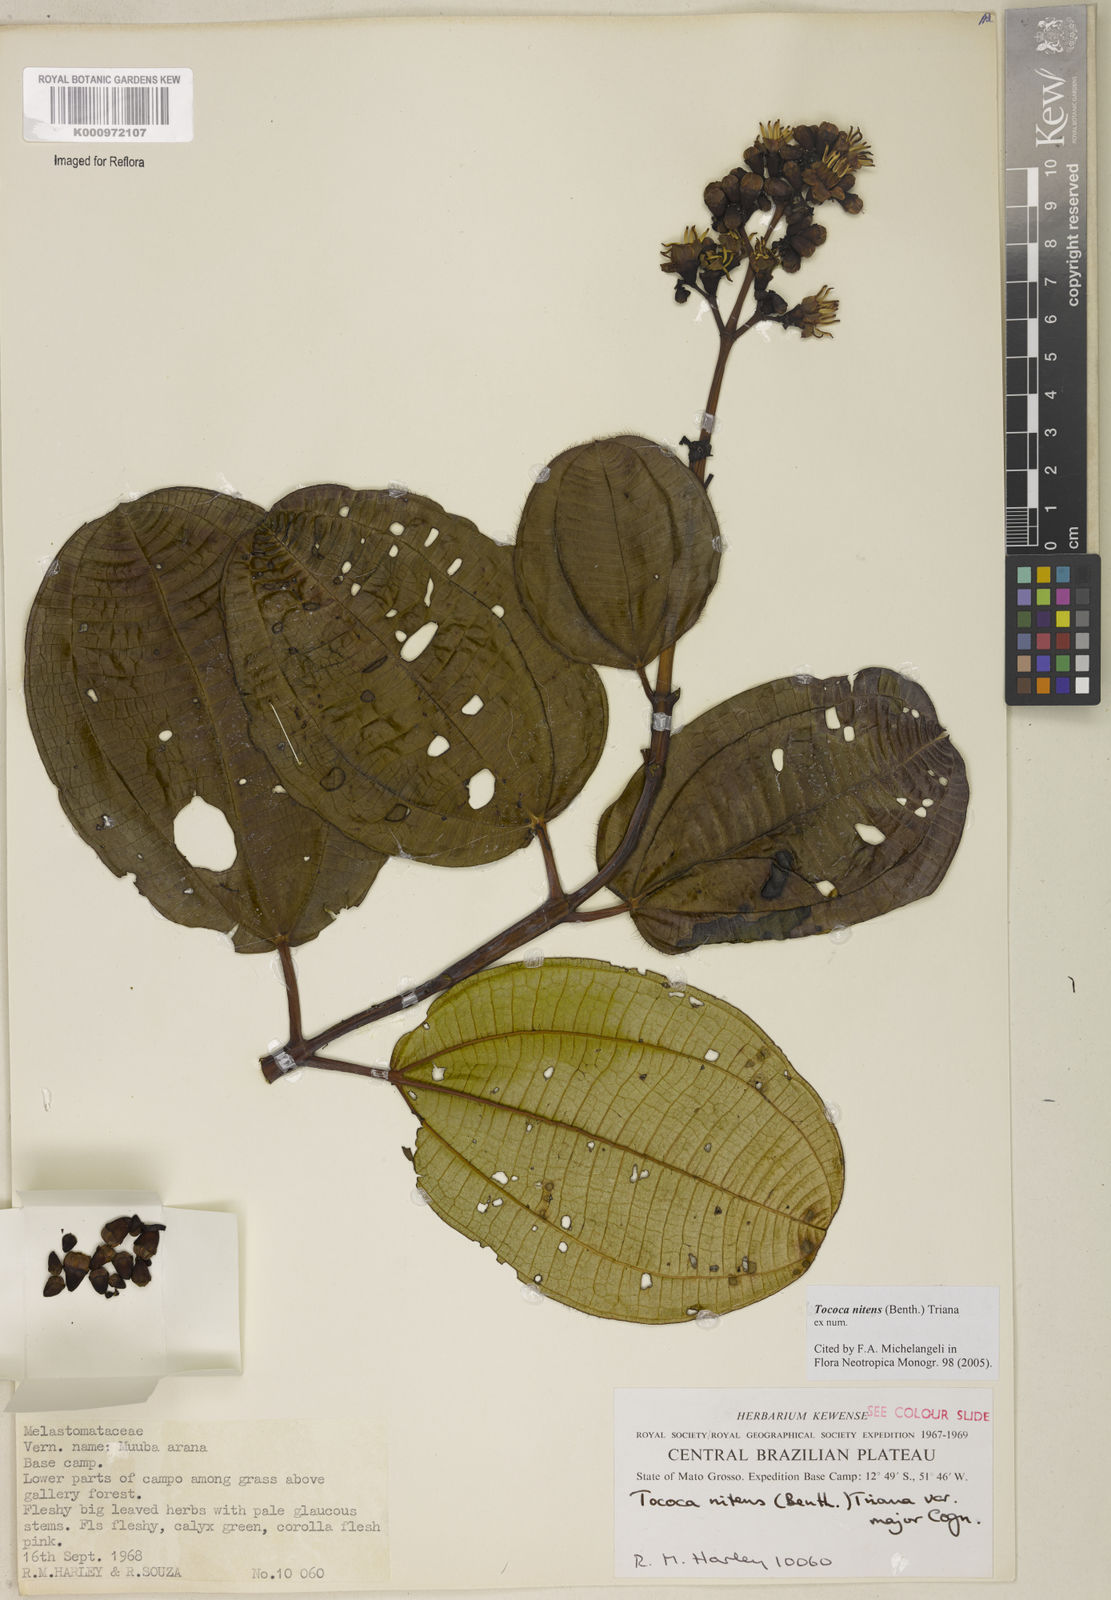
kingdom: Plantae
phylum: Tracheophyta
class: Magnoliopsida
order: Myrtales
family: Melastomataceae
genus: Miconia
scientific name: Miconia nitens
